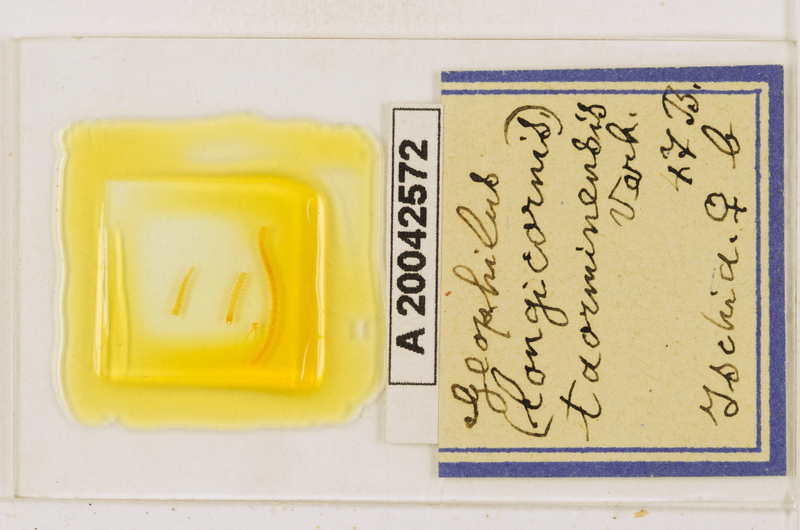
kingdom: Animalia
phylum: Arthropoda
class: Chilopoda
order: Geophilomorpha
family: Geophilidae
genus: Geophilus
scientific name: Geophilus osquidatum
